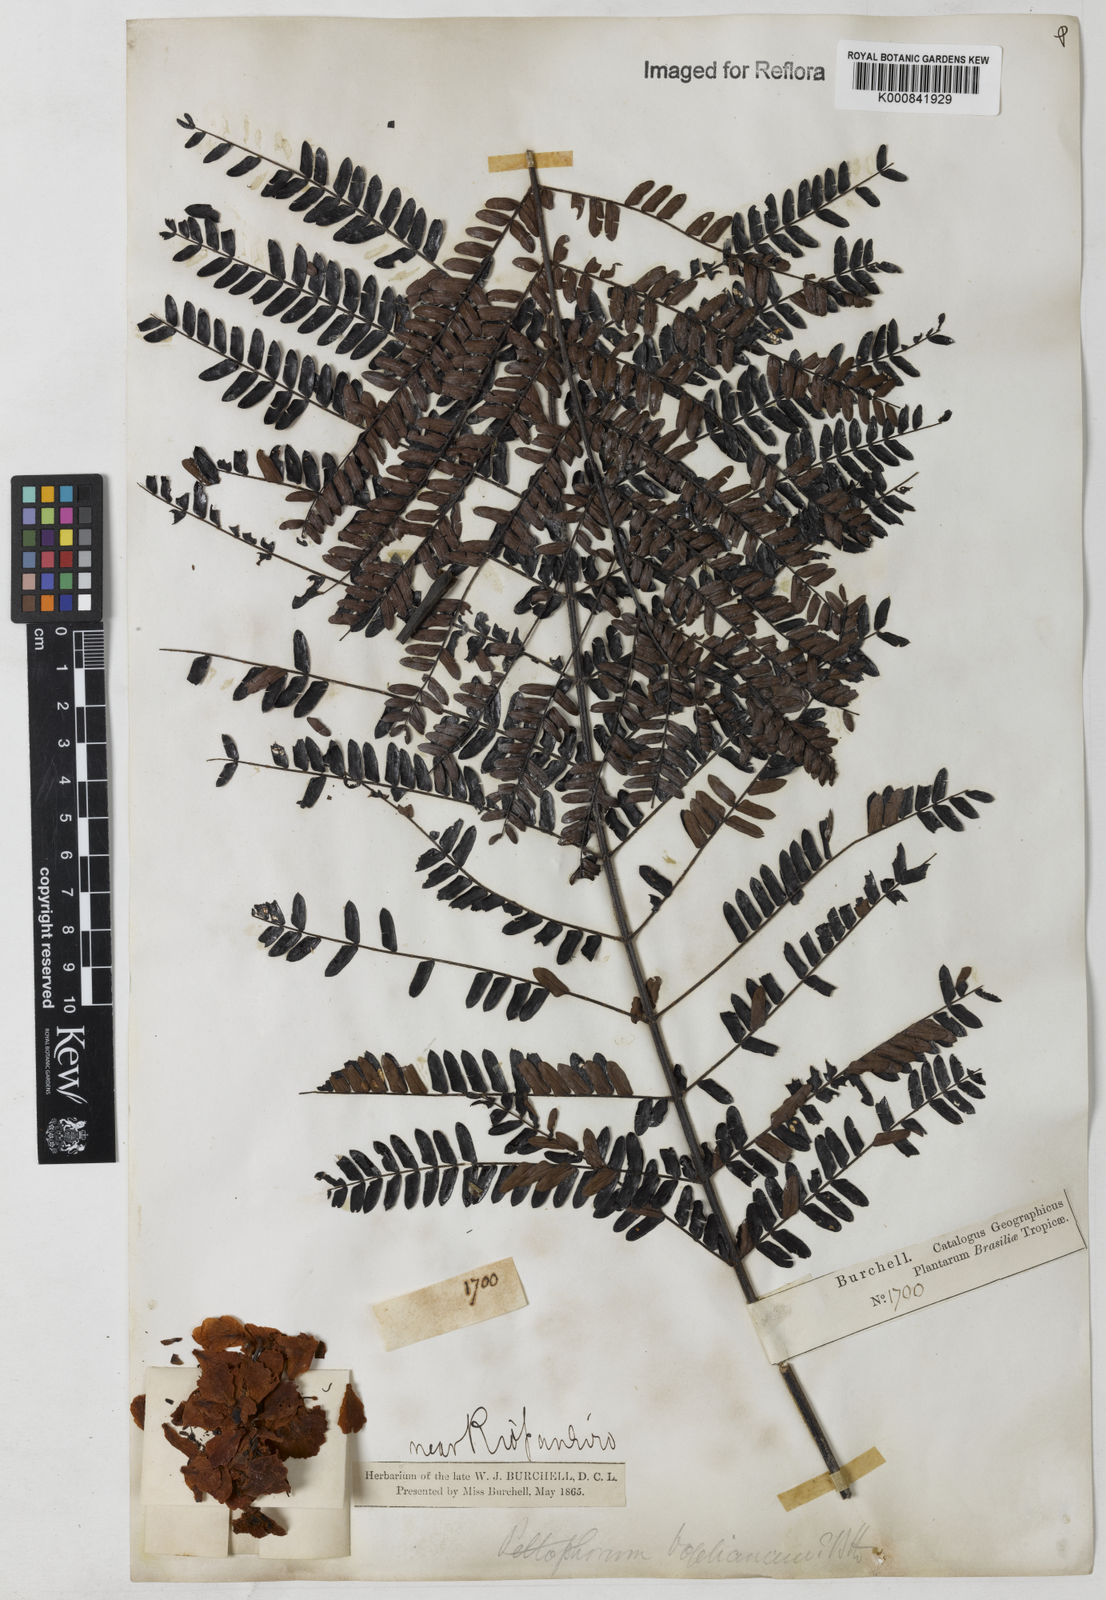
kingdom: Plantae
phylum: Tracheophyta
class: Magnoliopsida
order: Fabales
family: Fabaceae
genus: Peltophorum
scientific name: Peltophorum dubium
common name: Horsebush
